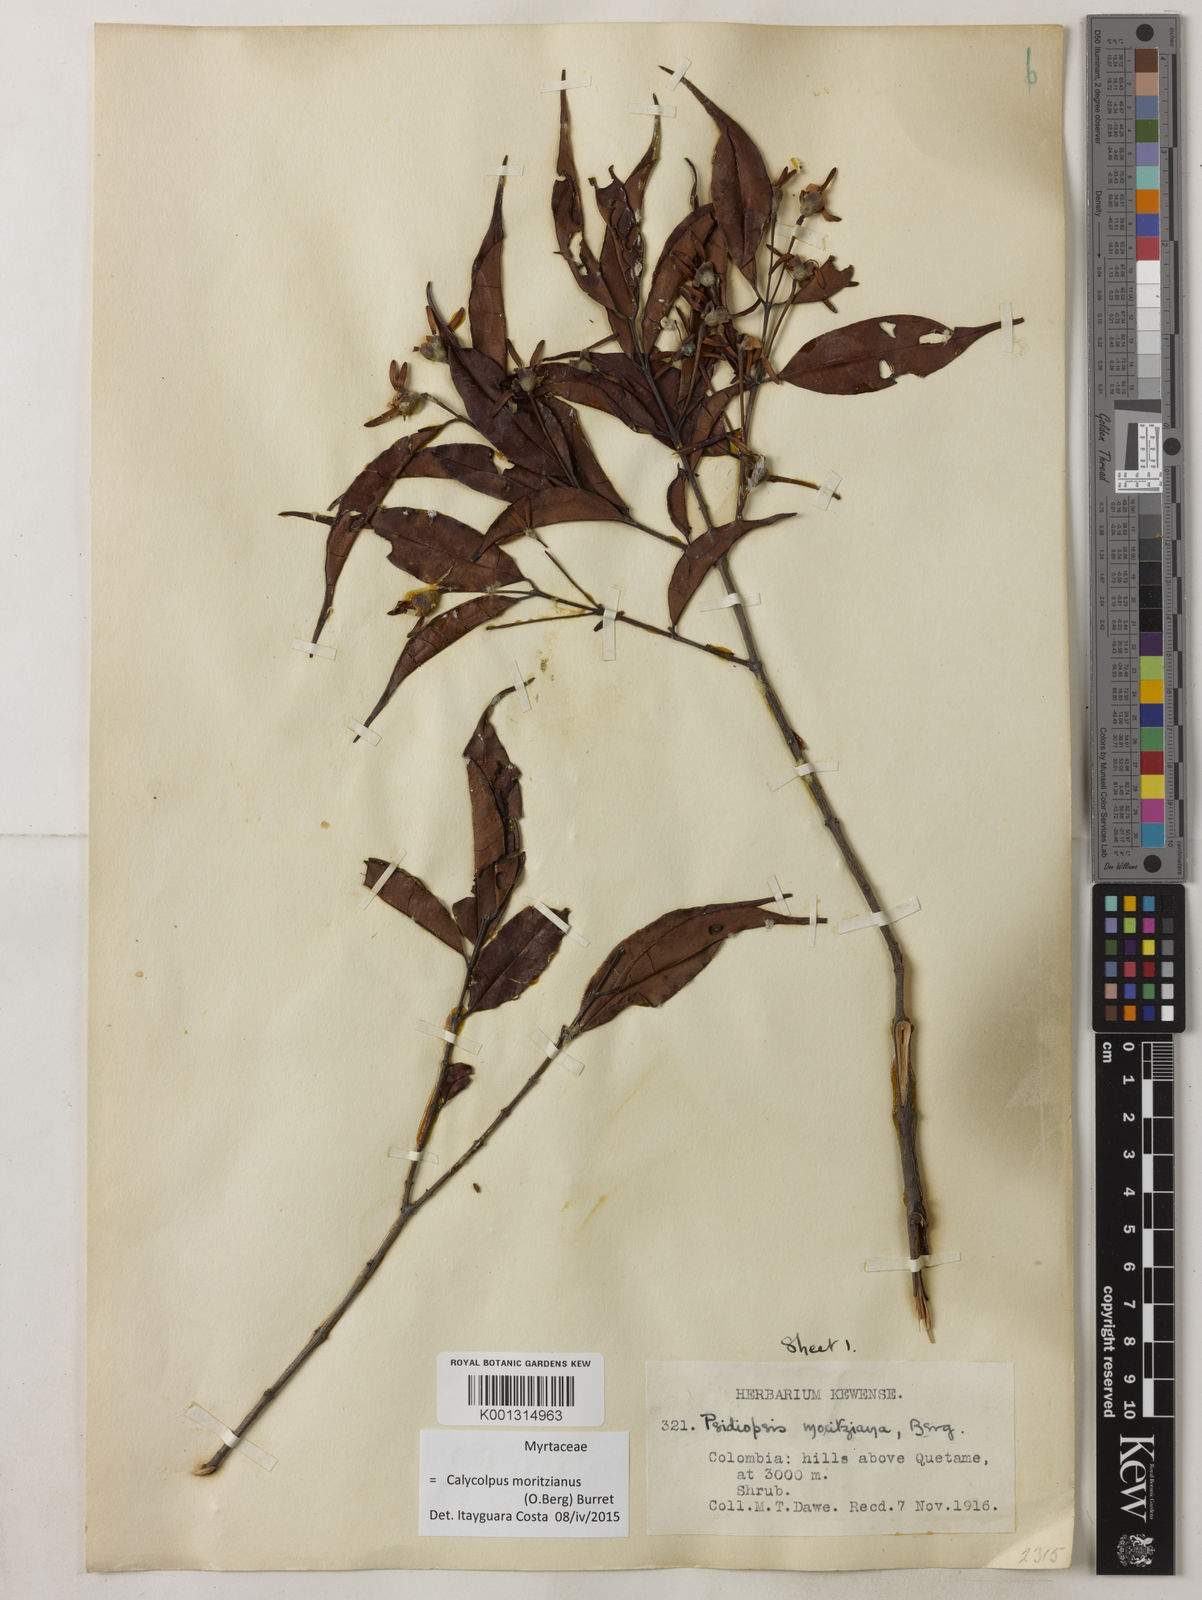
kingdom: Plantae
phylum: Tracheophyta
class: Magnoliopsida
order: Myrtales
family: Myrtaceae
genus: Calycolpus
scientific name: Calycolpus moritzianus
